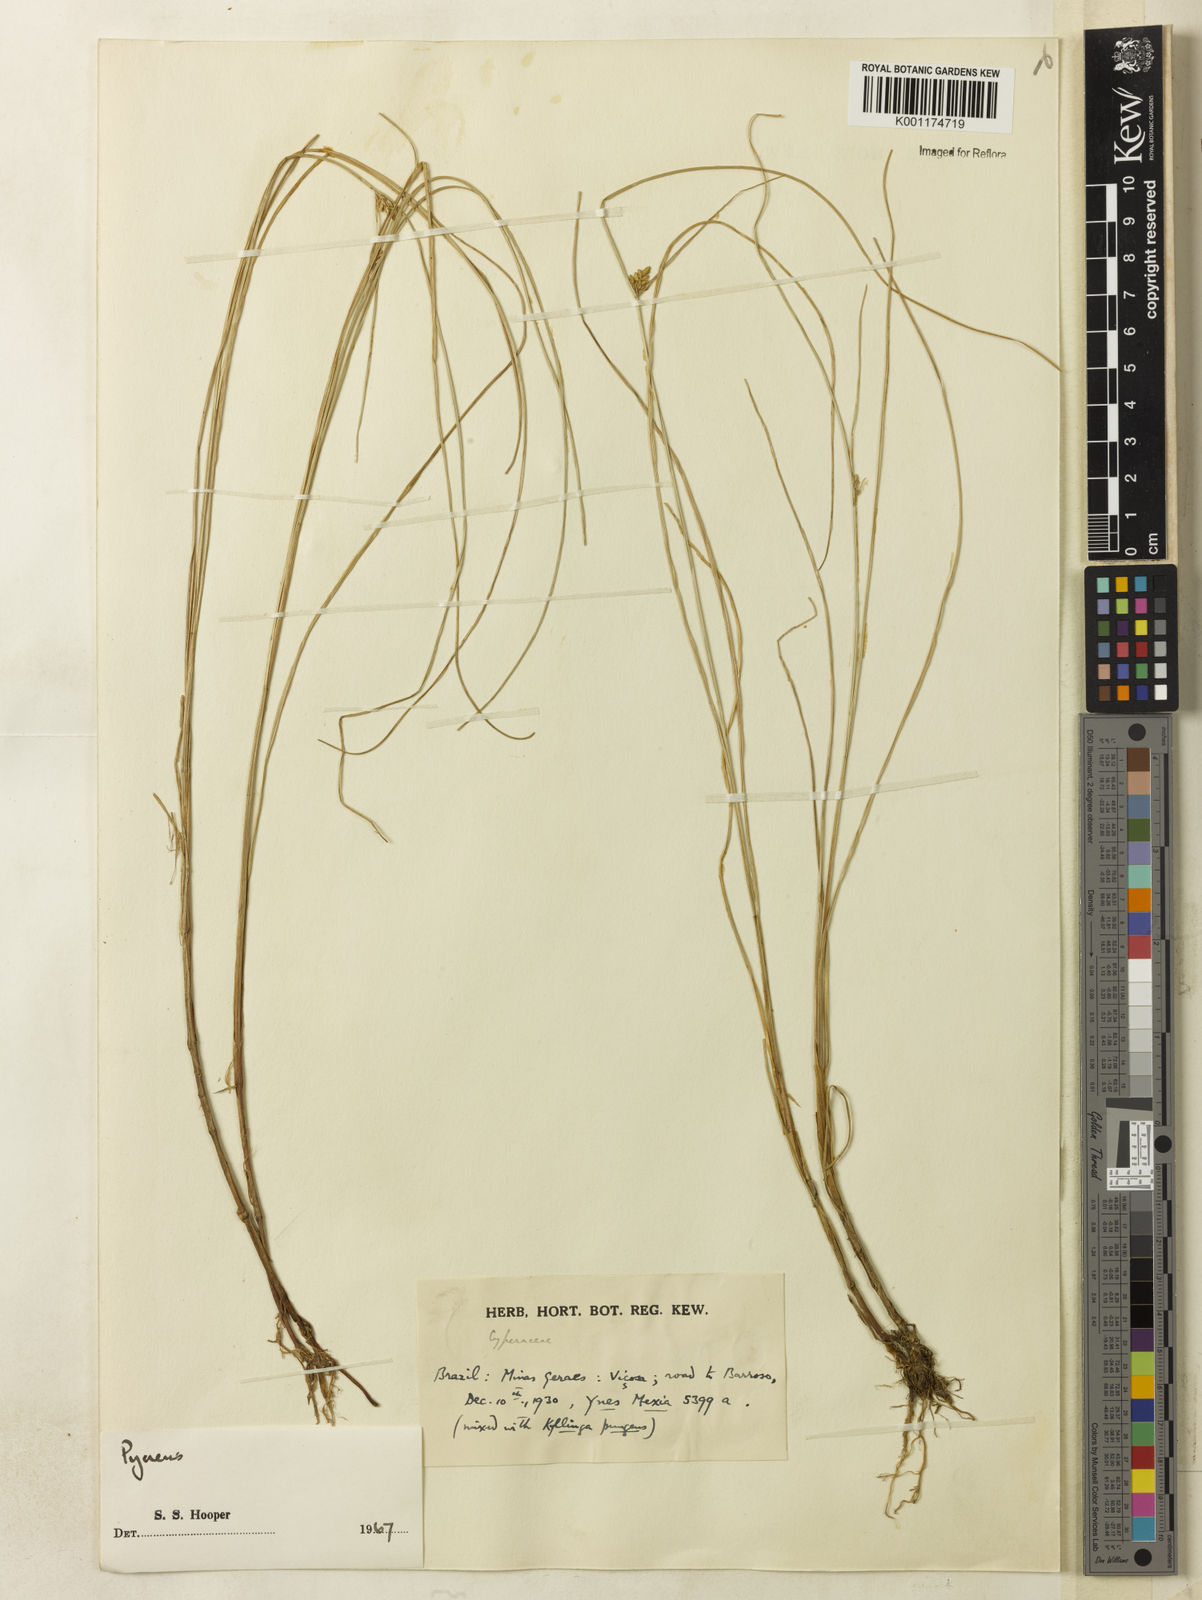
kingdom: Plantae
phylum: Tracheophyta
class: Liliopsida
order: Poales
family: Cyperaceae
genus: Cyperus
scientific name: Cyperus
